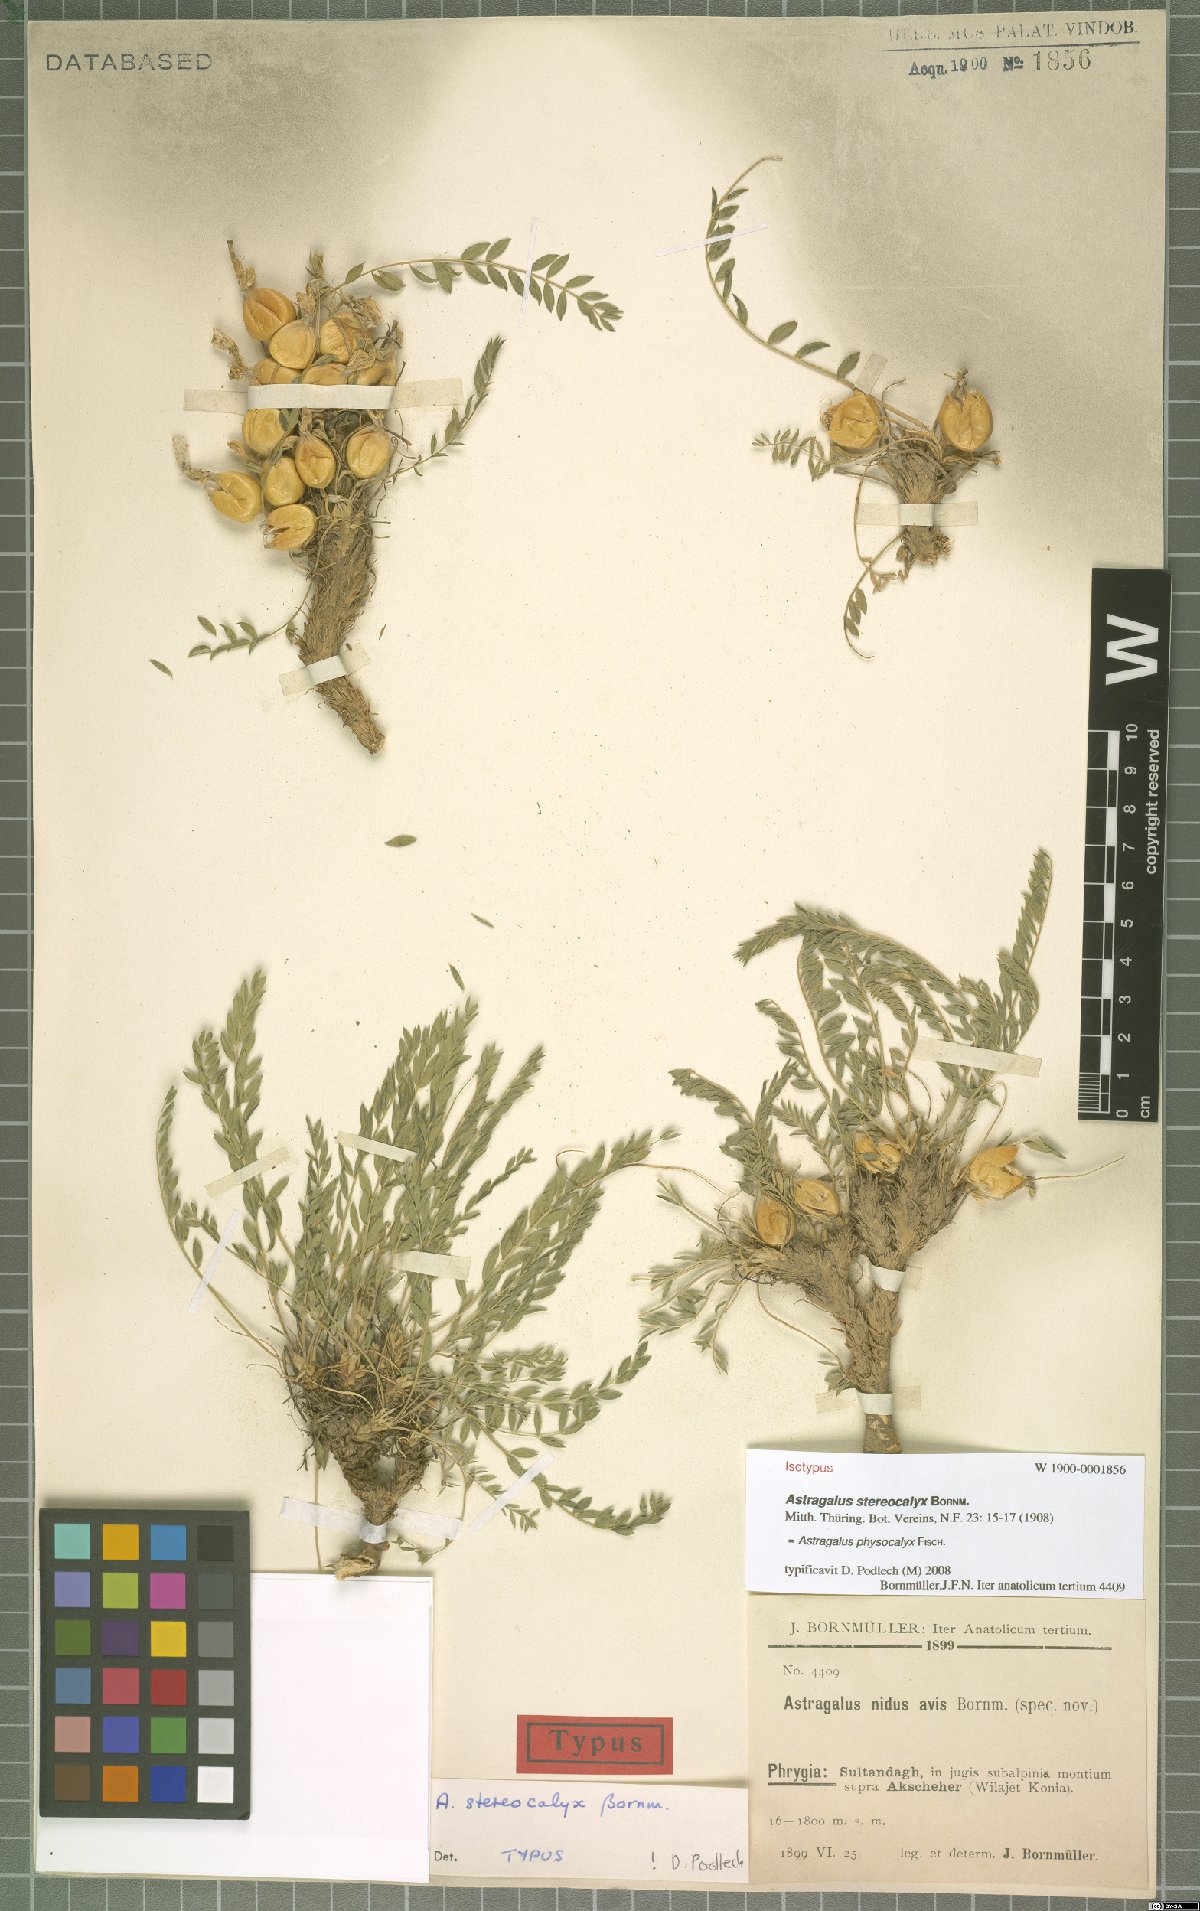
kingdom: Plantae
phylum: Tracheophyta
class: Magnoliopsida
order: Fabales
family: Fabaceae
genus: Astragalus
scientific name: Astragalus physocalyx
